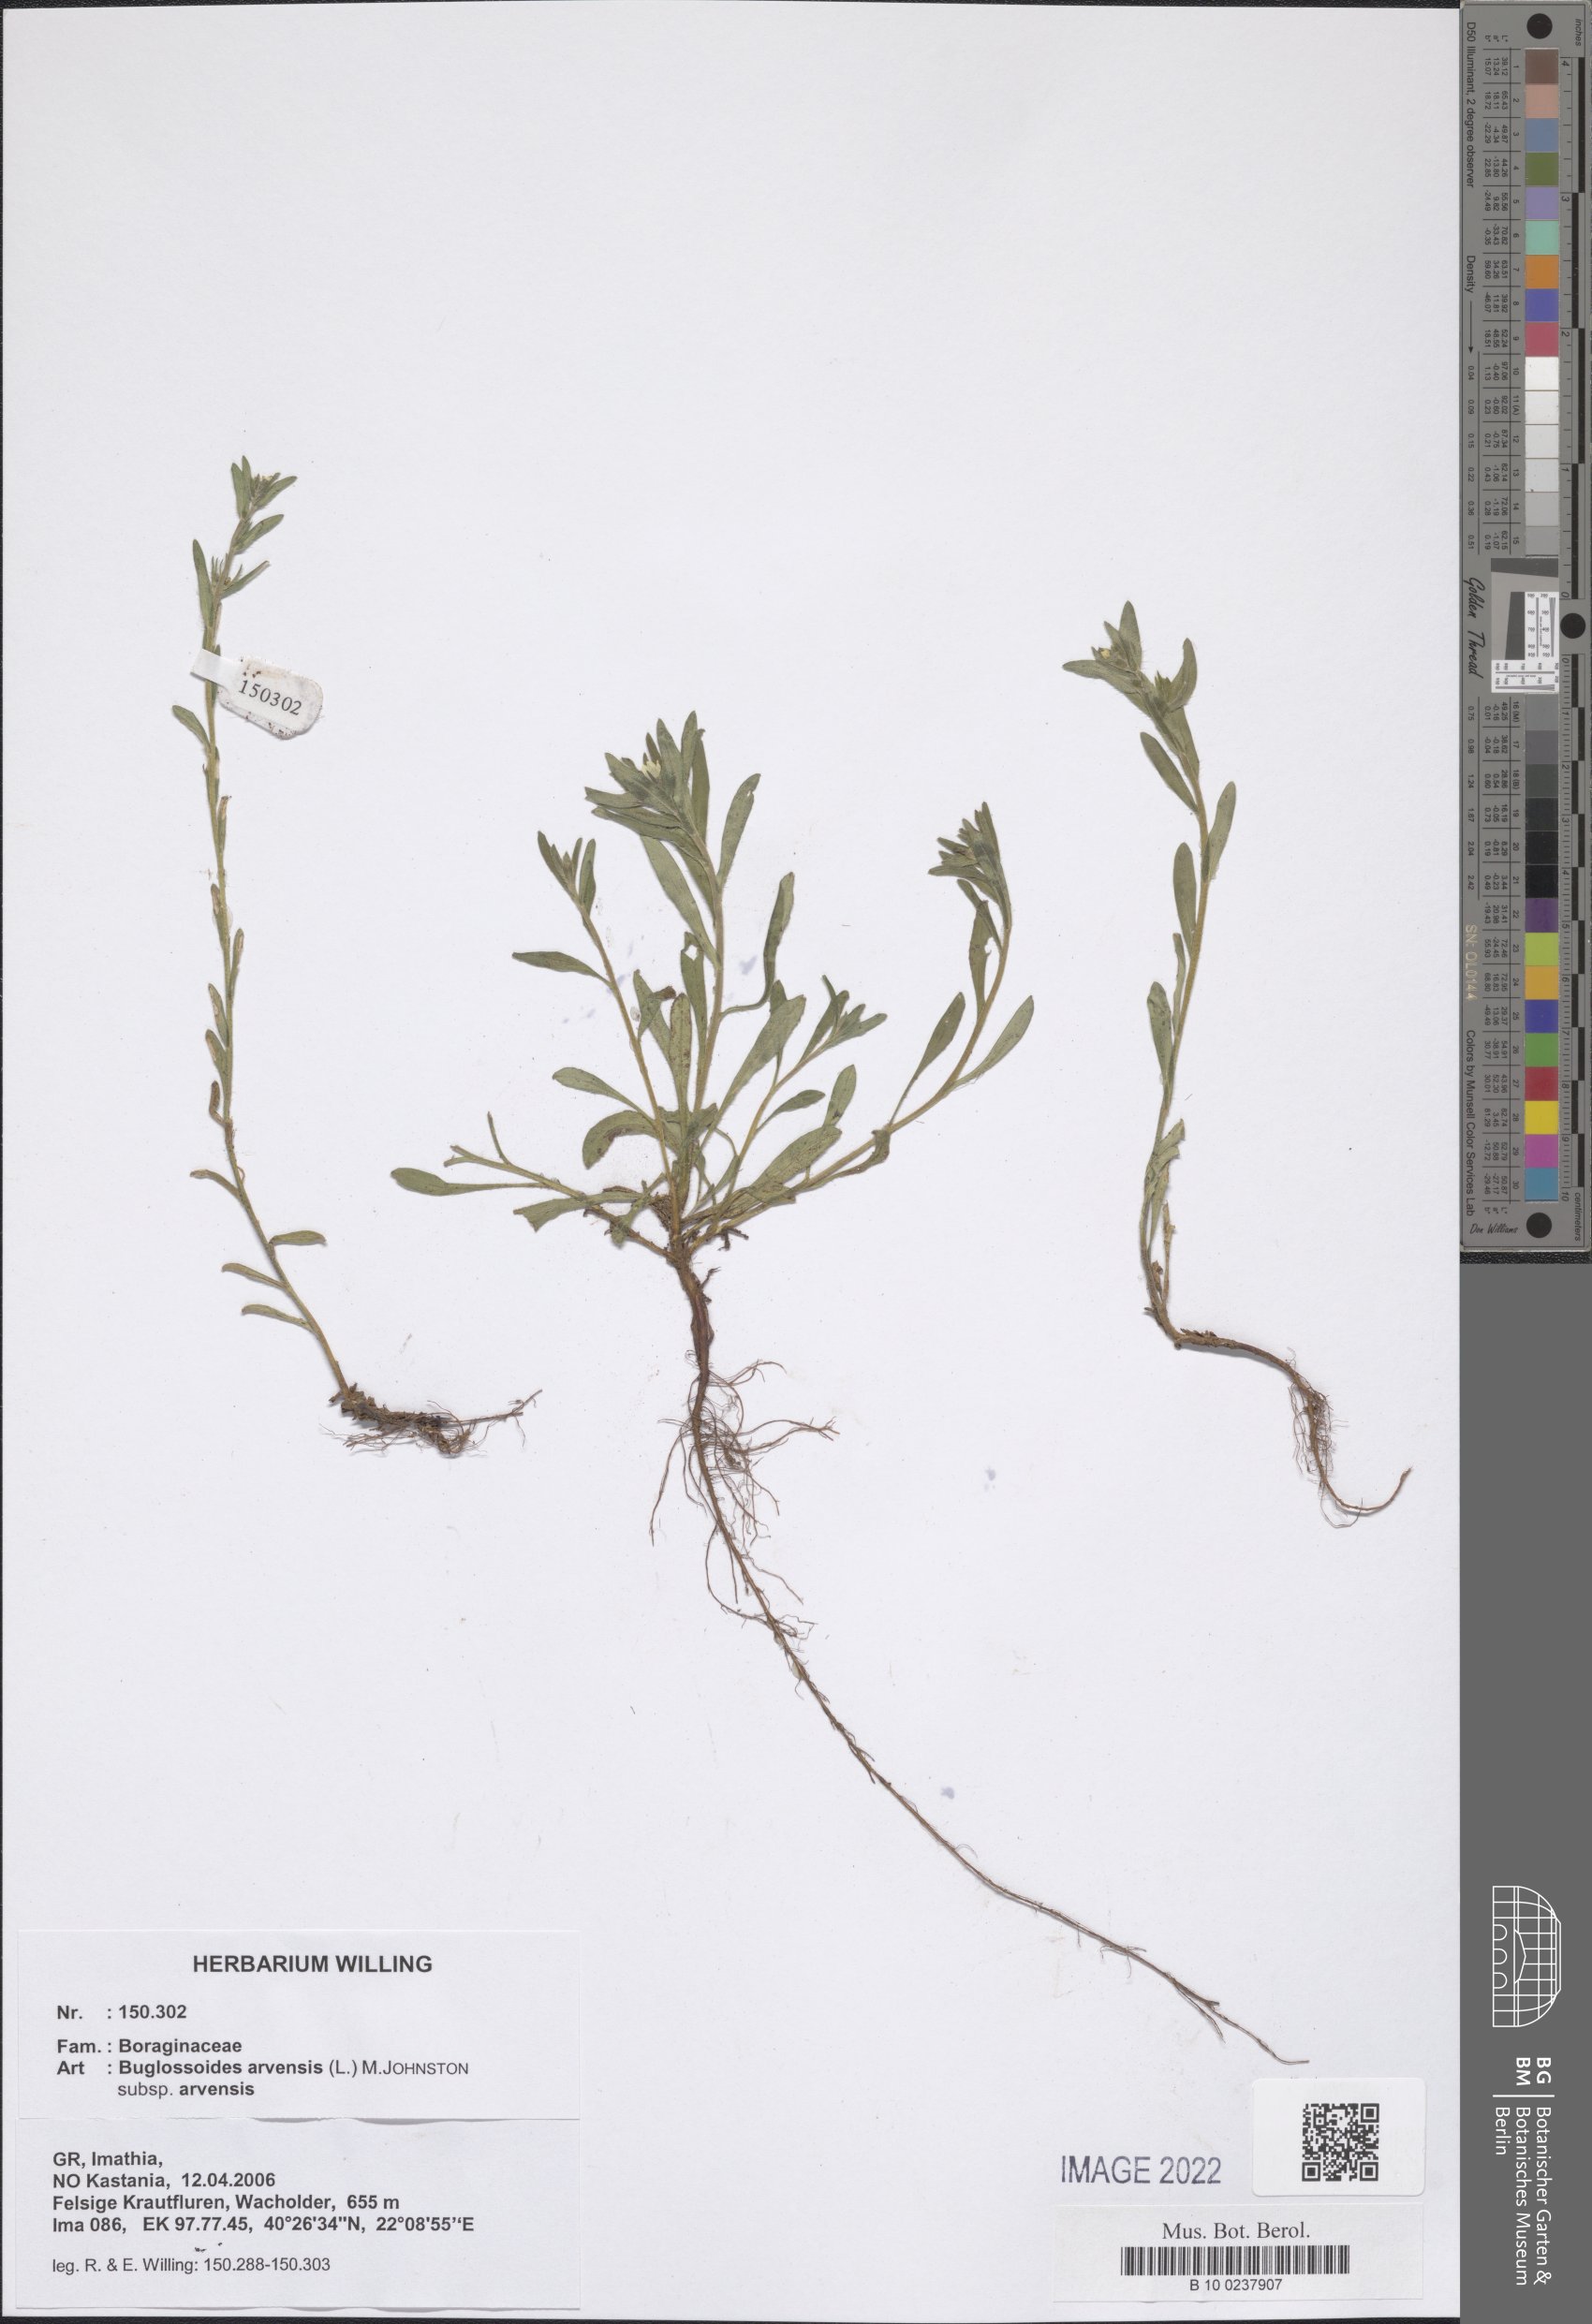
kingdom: Plantae
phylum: Tracheophyta
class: Magnoliopsida
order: Boraginales
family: Boraginaceae
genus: Buglossoides
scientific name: Buglossoides arvensis
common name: Corn gromwell
